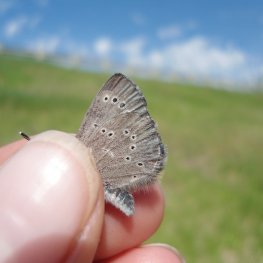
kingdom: Animalia
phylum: Arthropoda
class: Insecta
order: Lepidoptera
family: Lycaenidae
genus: Glaucopsyche
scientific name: Glaucopsyche lygdamus
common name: Silvery Blue
